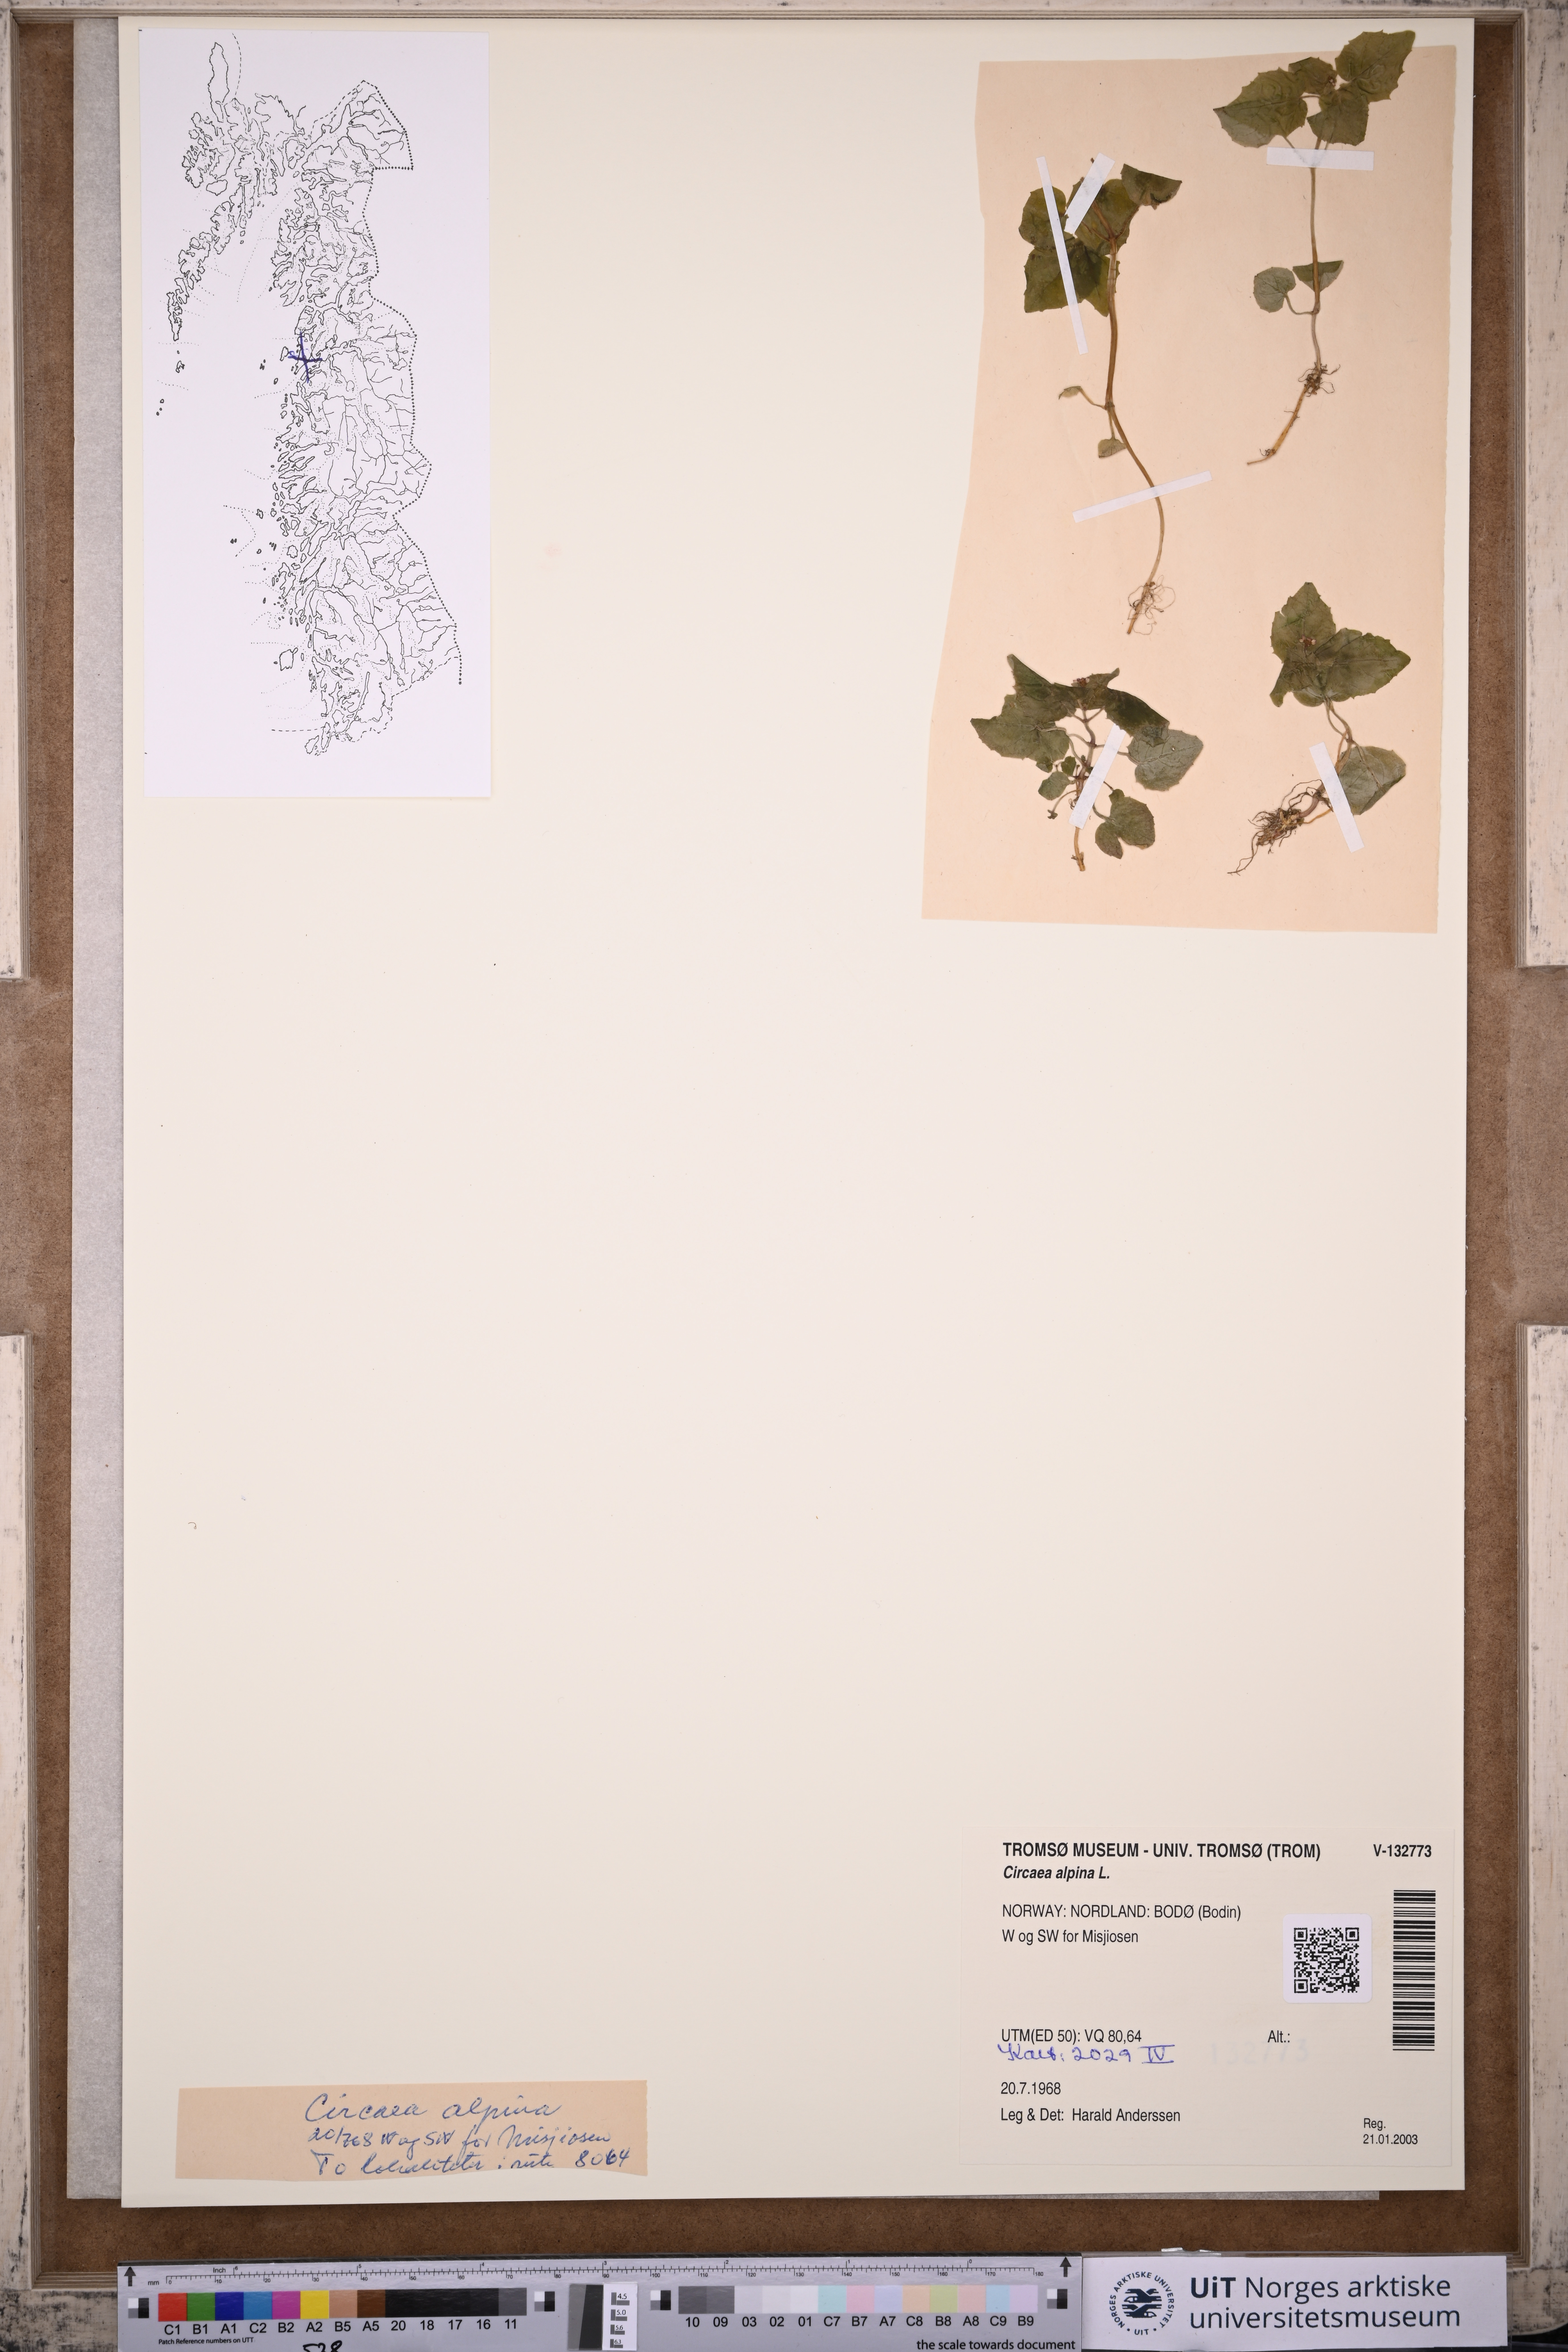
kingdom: Plantae
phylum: Tracheophyta
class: Magnoliopsida
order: Myrtales
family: Onagraceae
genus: Circaea
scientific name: Circaea alpina
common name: Alpine enchanter's-nightshade
